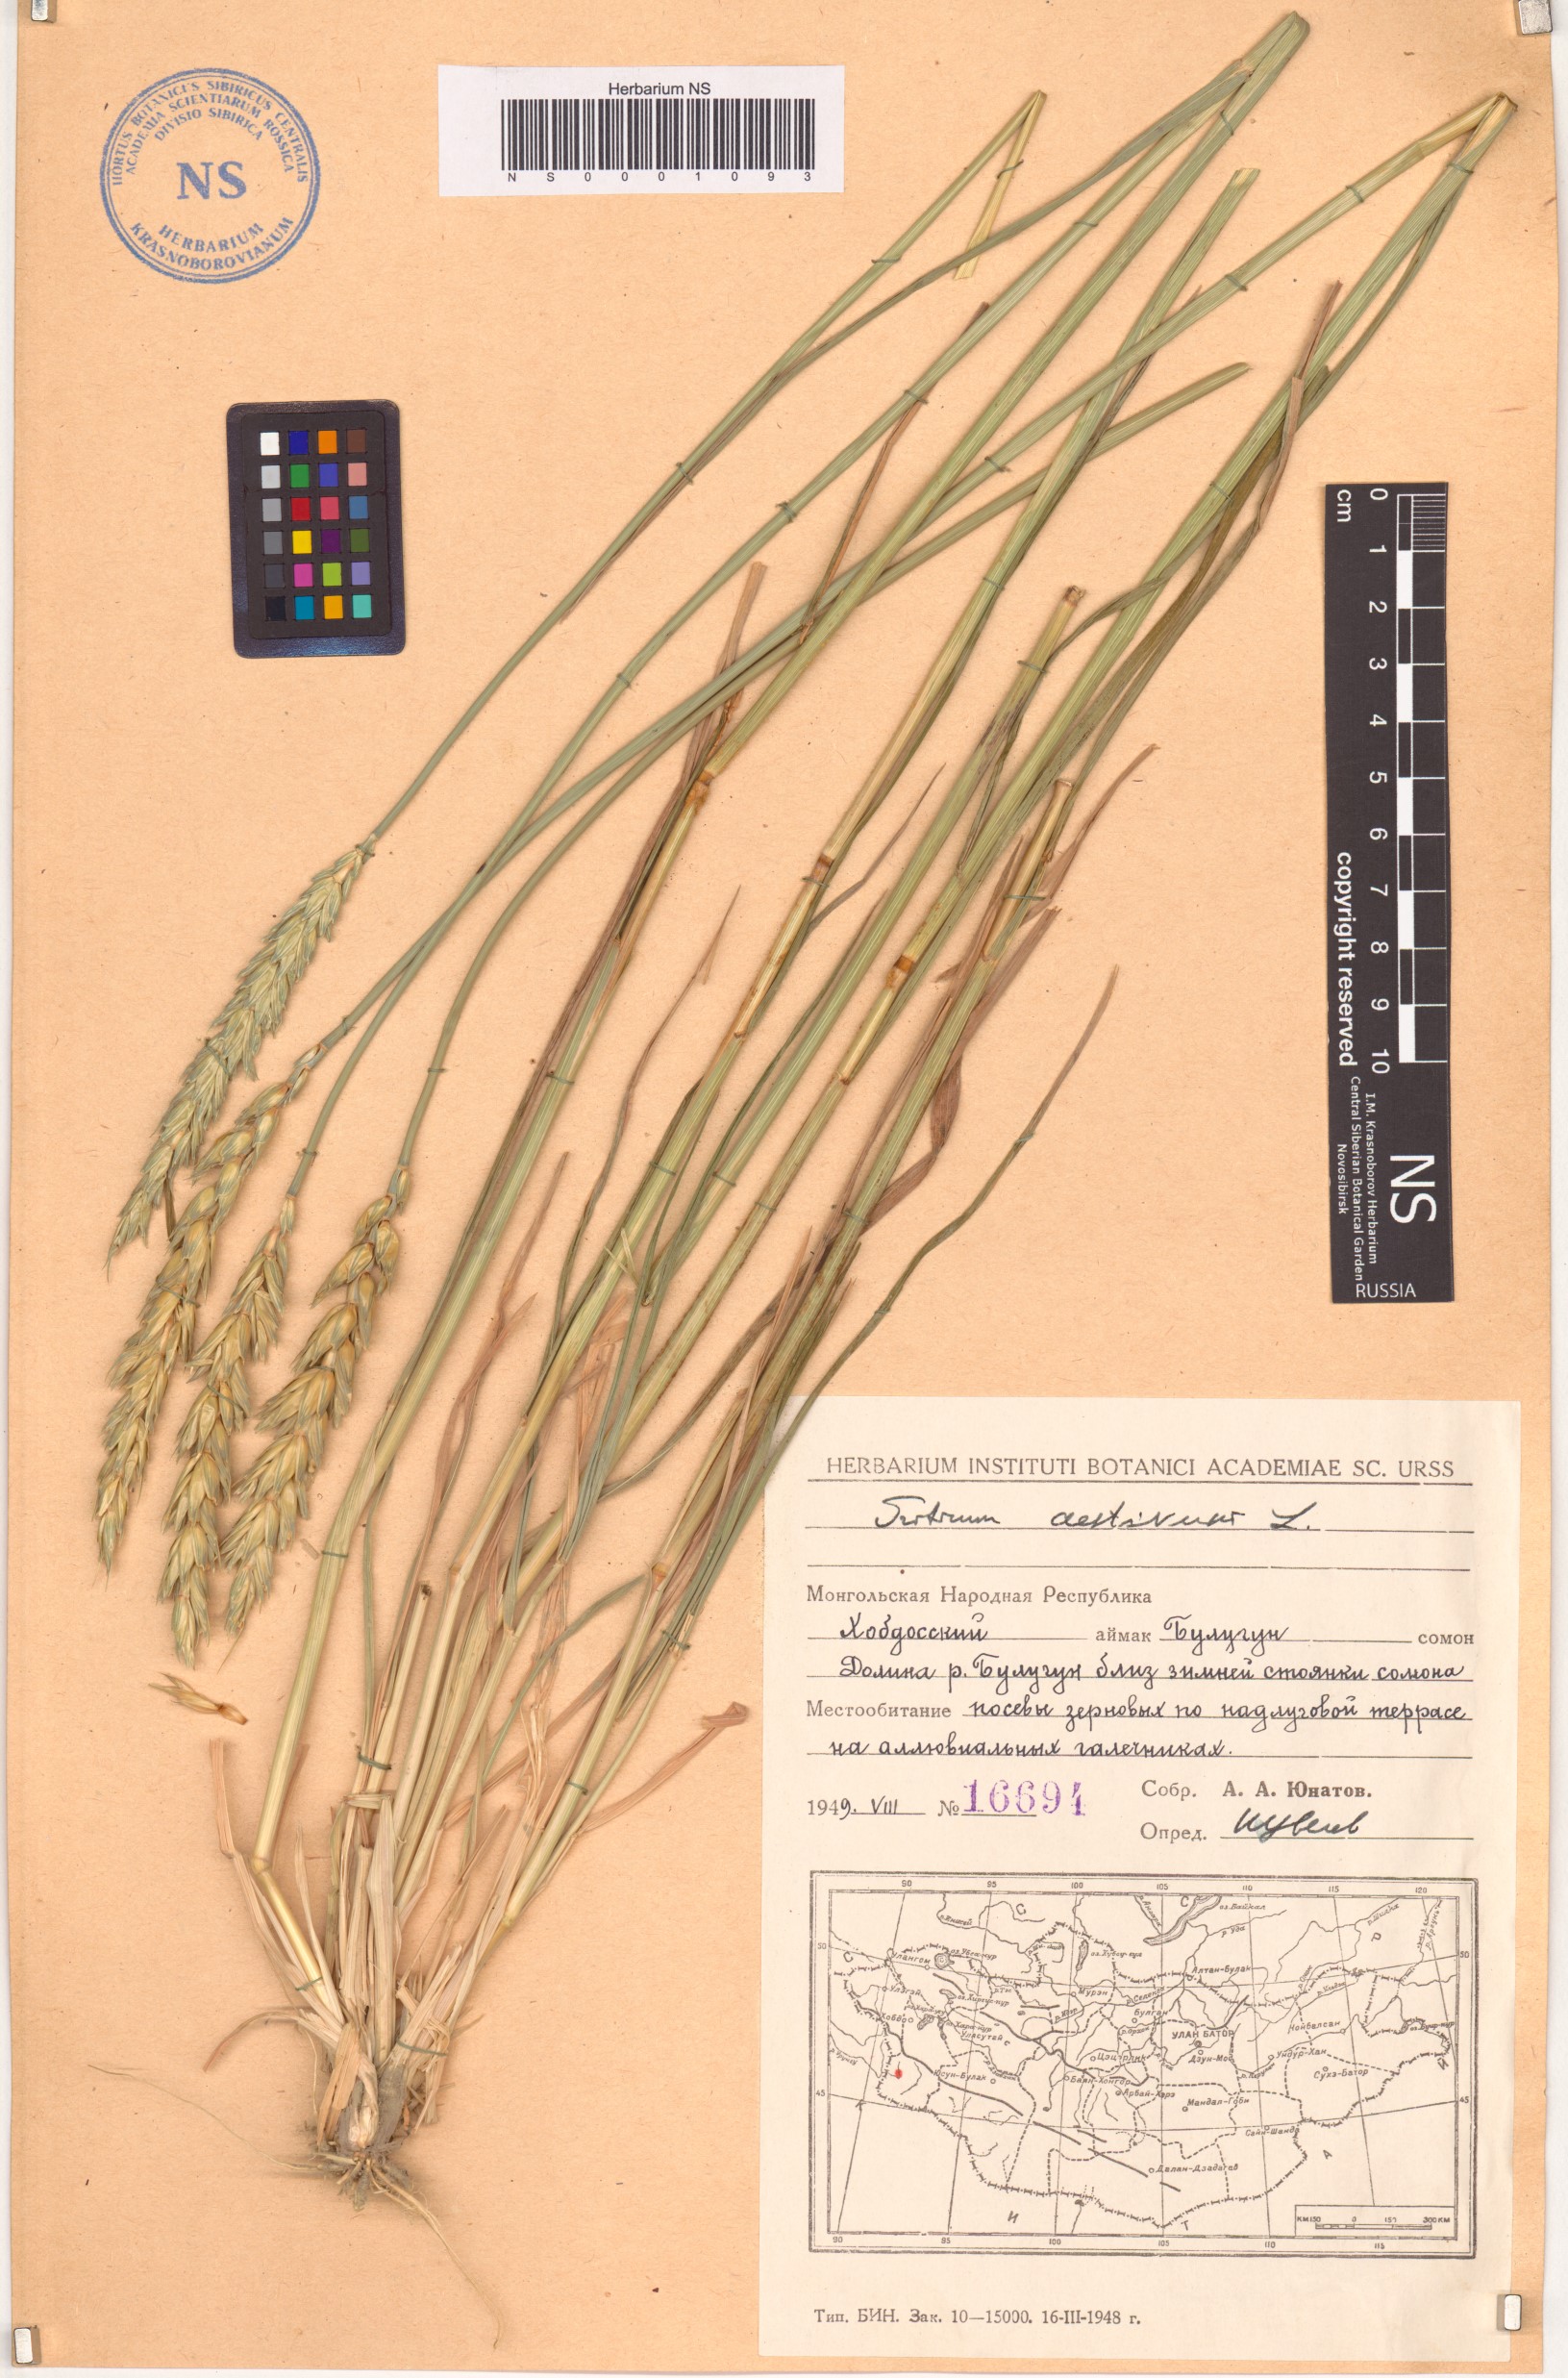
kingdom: Plantae
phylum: Tracheophyta
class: Liliopsida
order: Poales
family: Poaceae
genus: Triticum
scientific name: Triticum aestivum
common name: Common wheat
